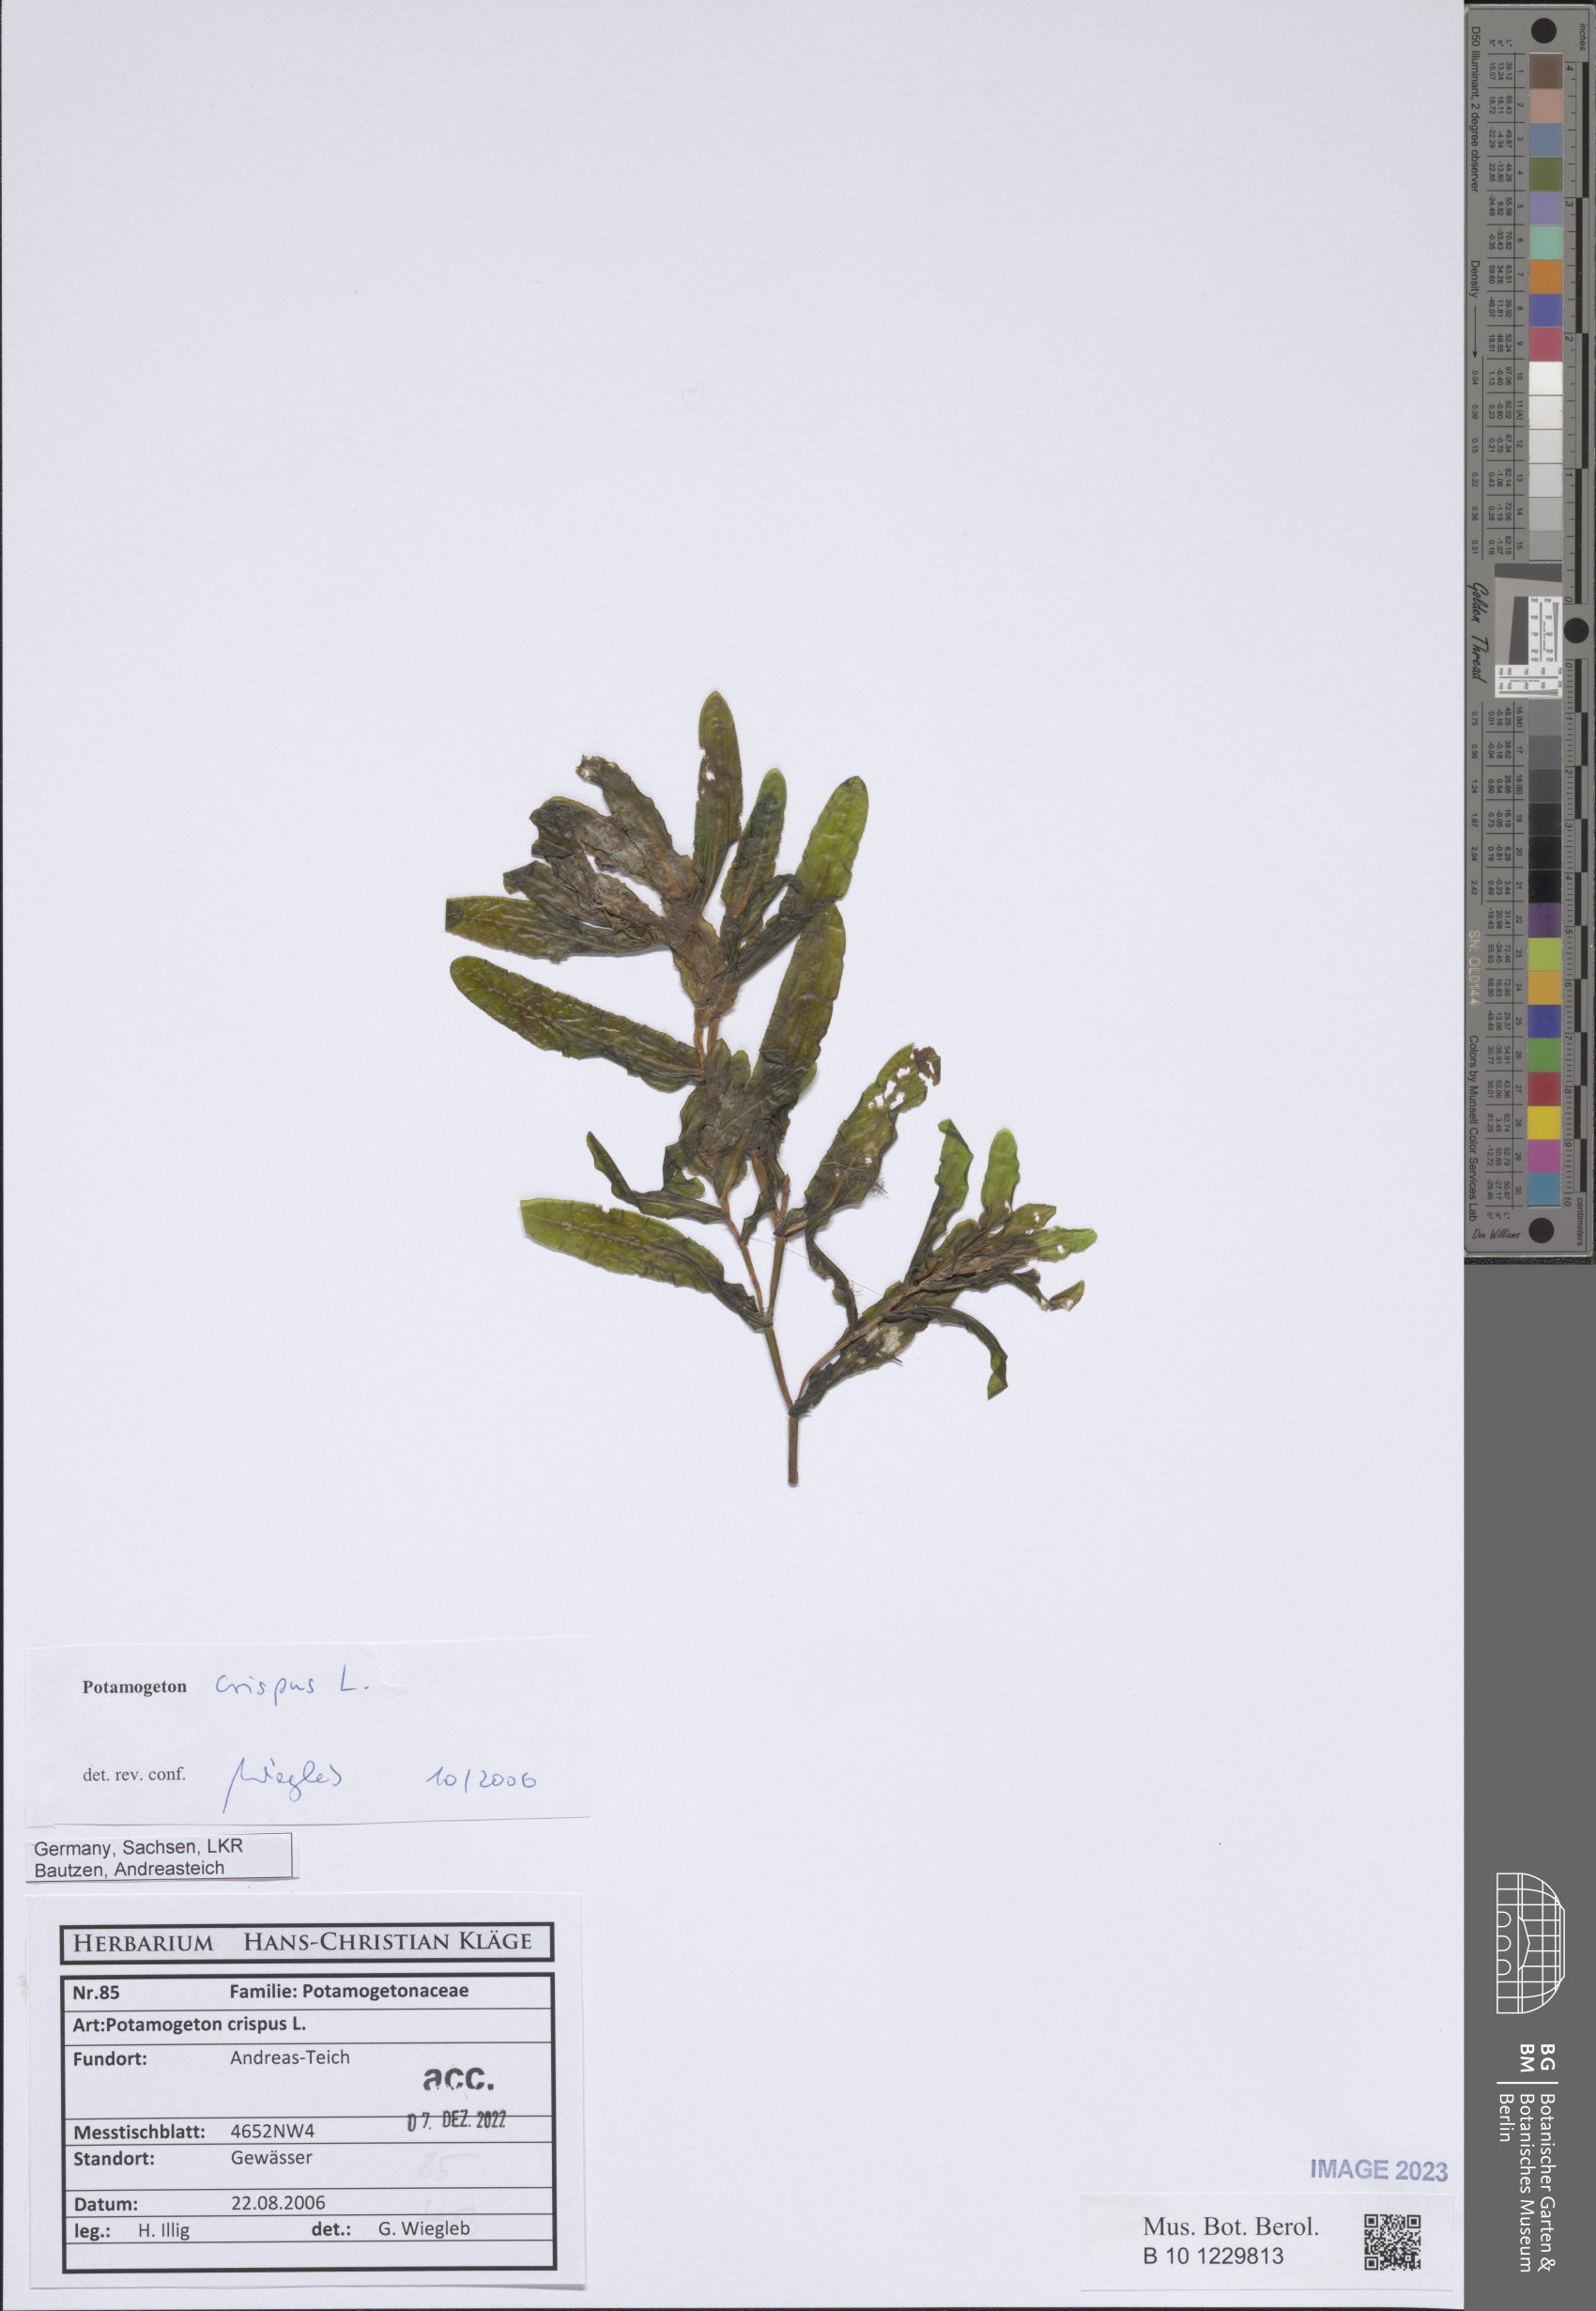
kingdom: Plantae
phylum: Tracheophyta
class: Liliopsida
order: Alismatales
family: Potamogetonaceae
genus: Potamogeton
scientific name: Potamogeton crispus
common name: Curled pondweed
